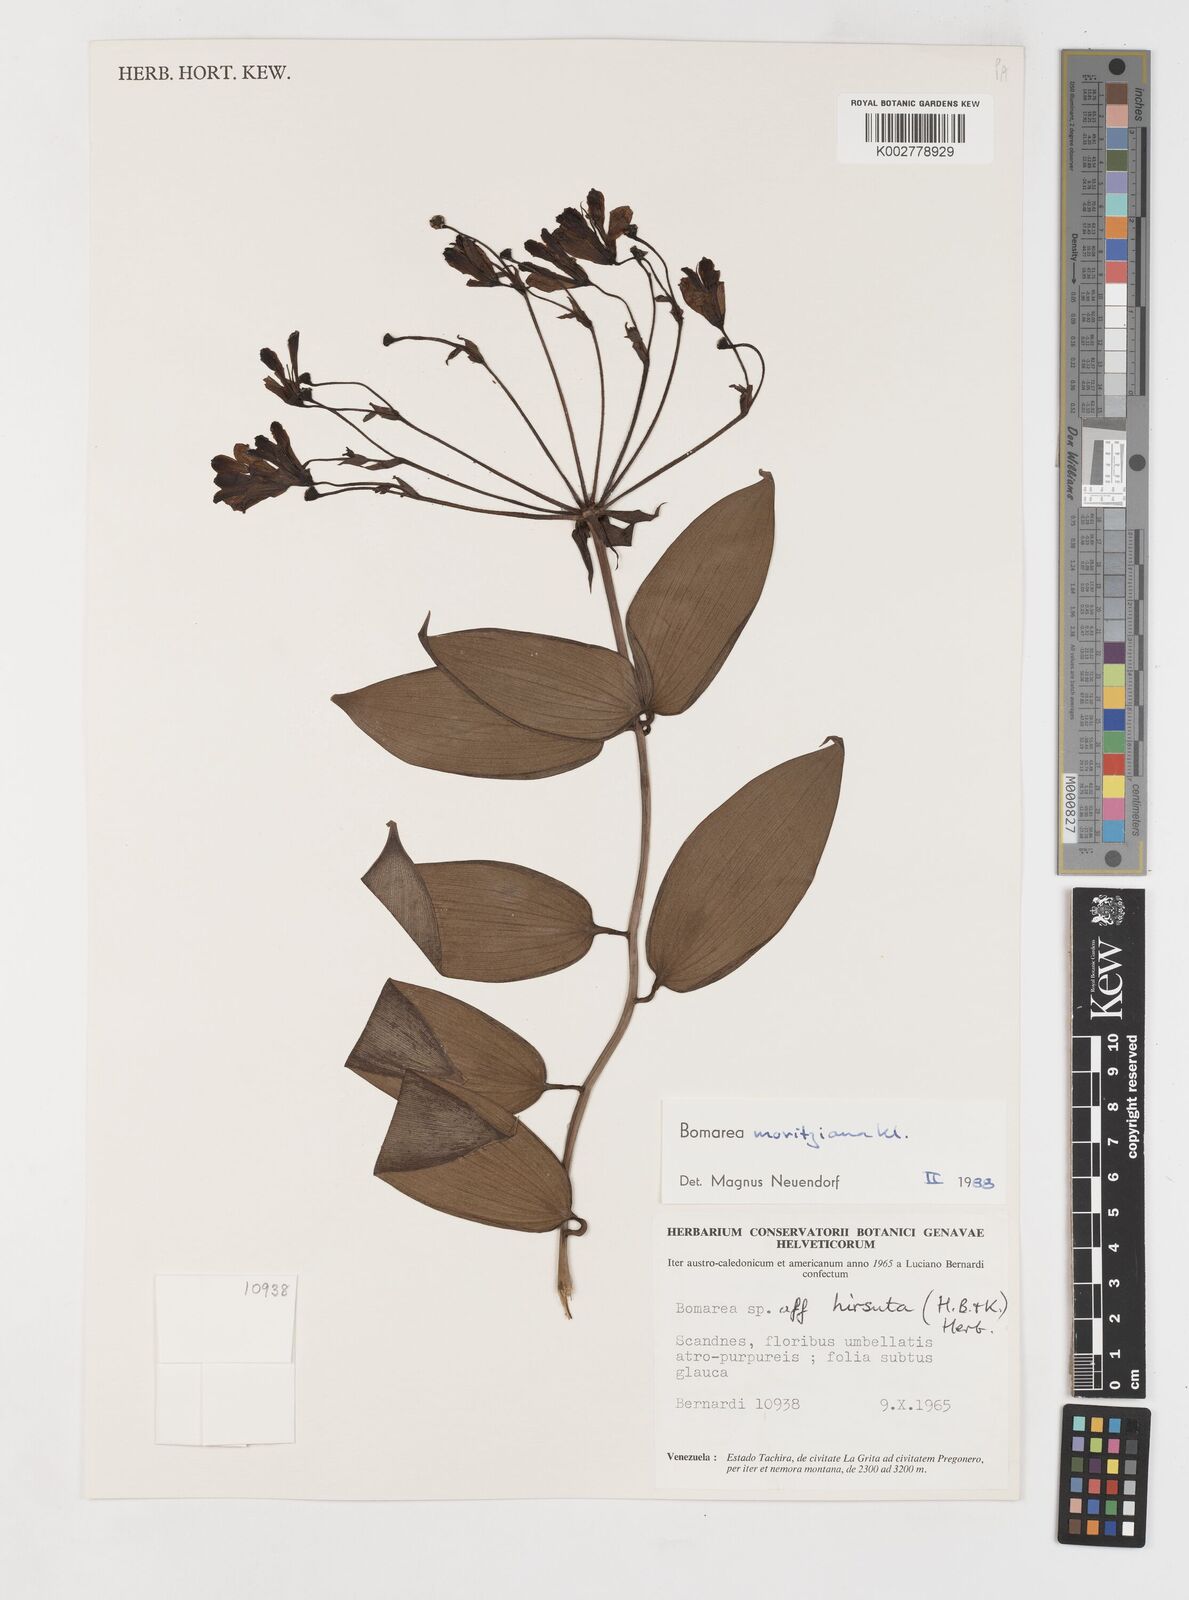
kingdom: Plantae
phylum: Tracheophyta
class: Liliopsida
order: Liliales
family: Alstroemeriaceae
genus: Bomarea
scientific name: Bomarea moritziana
